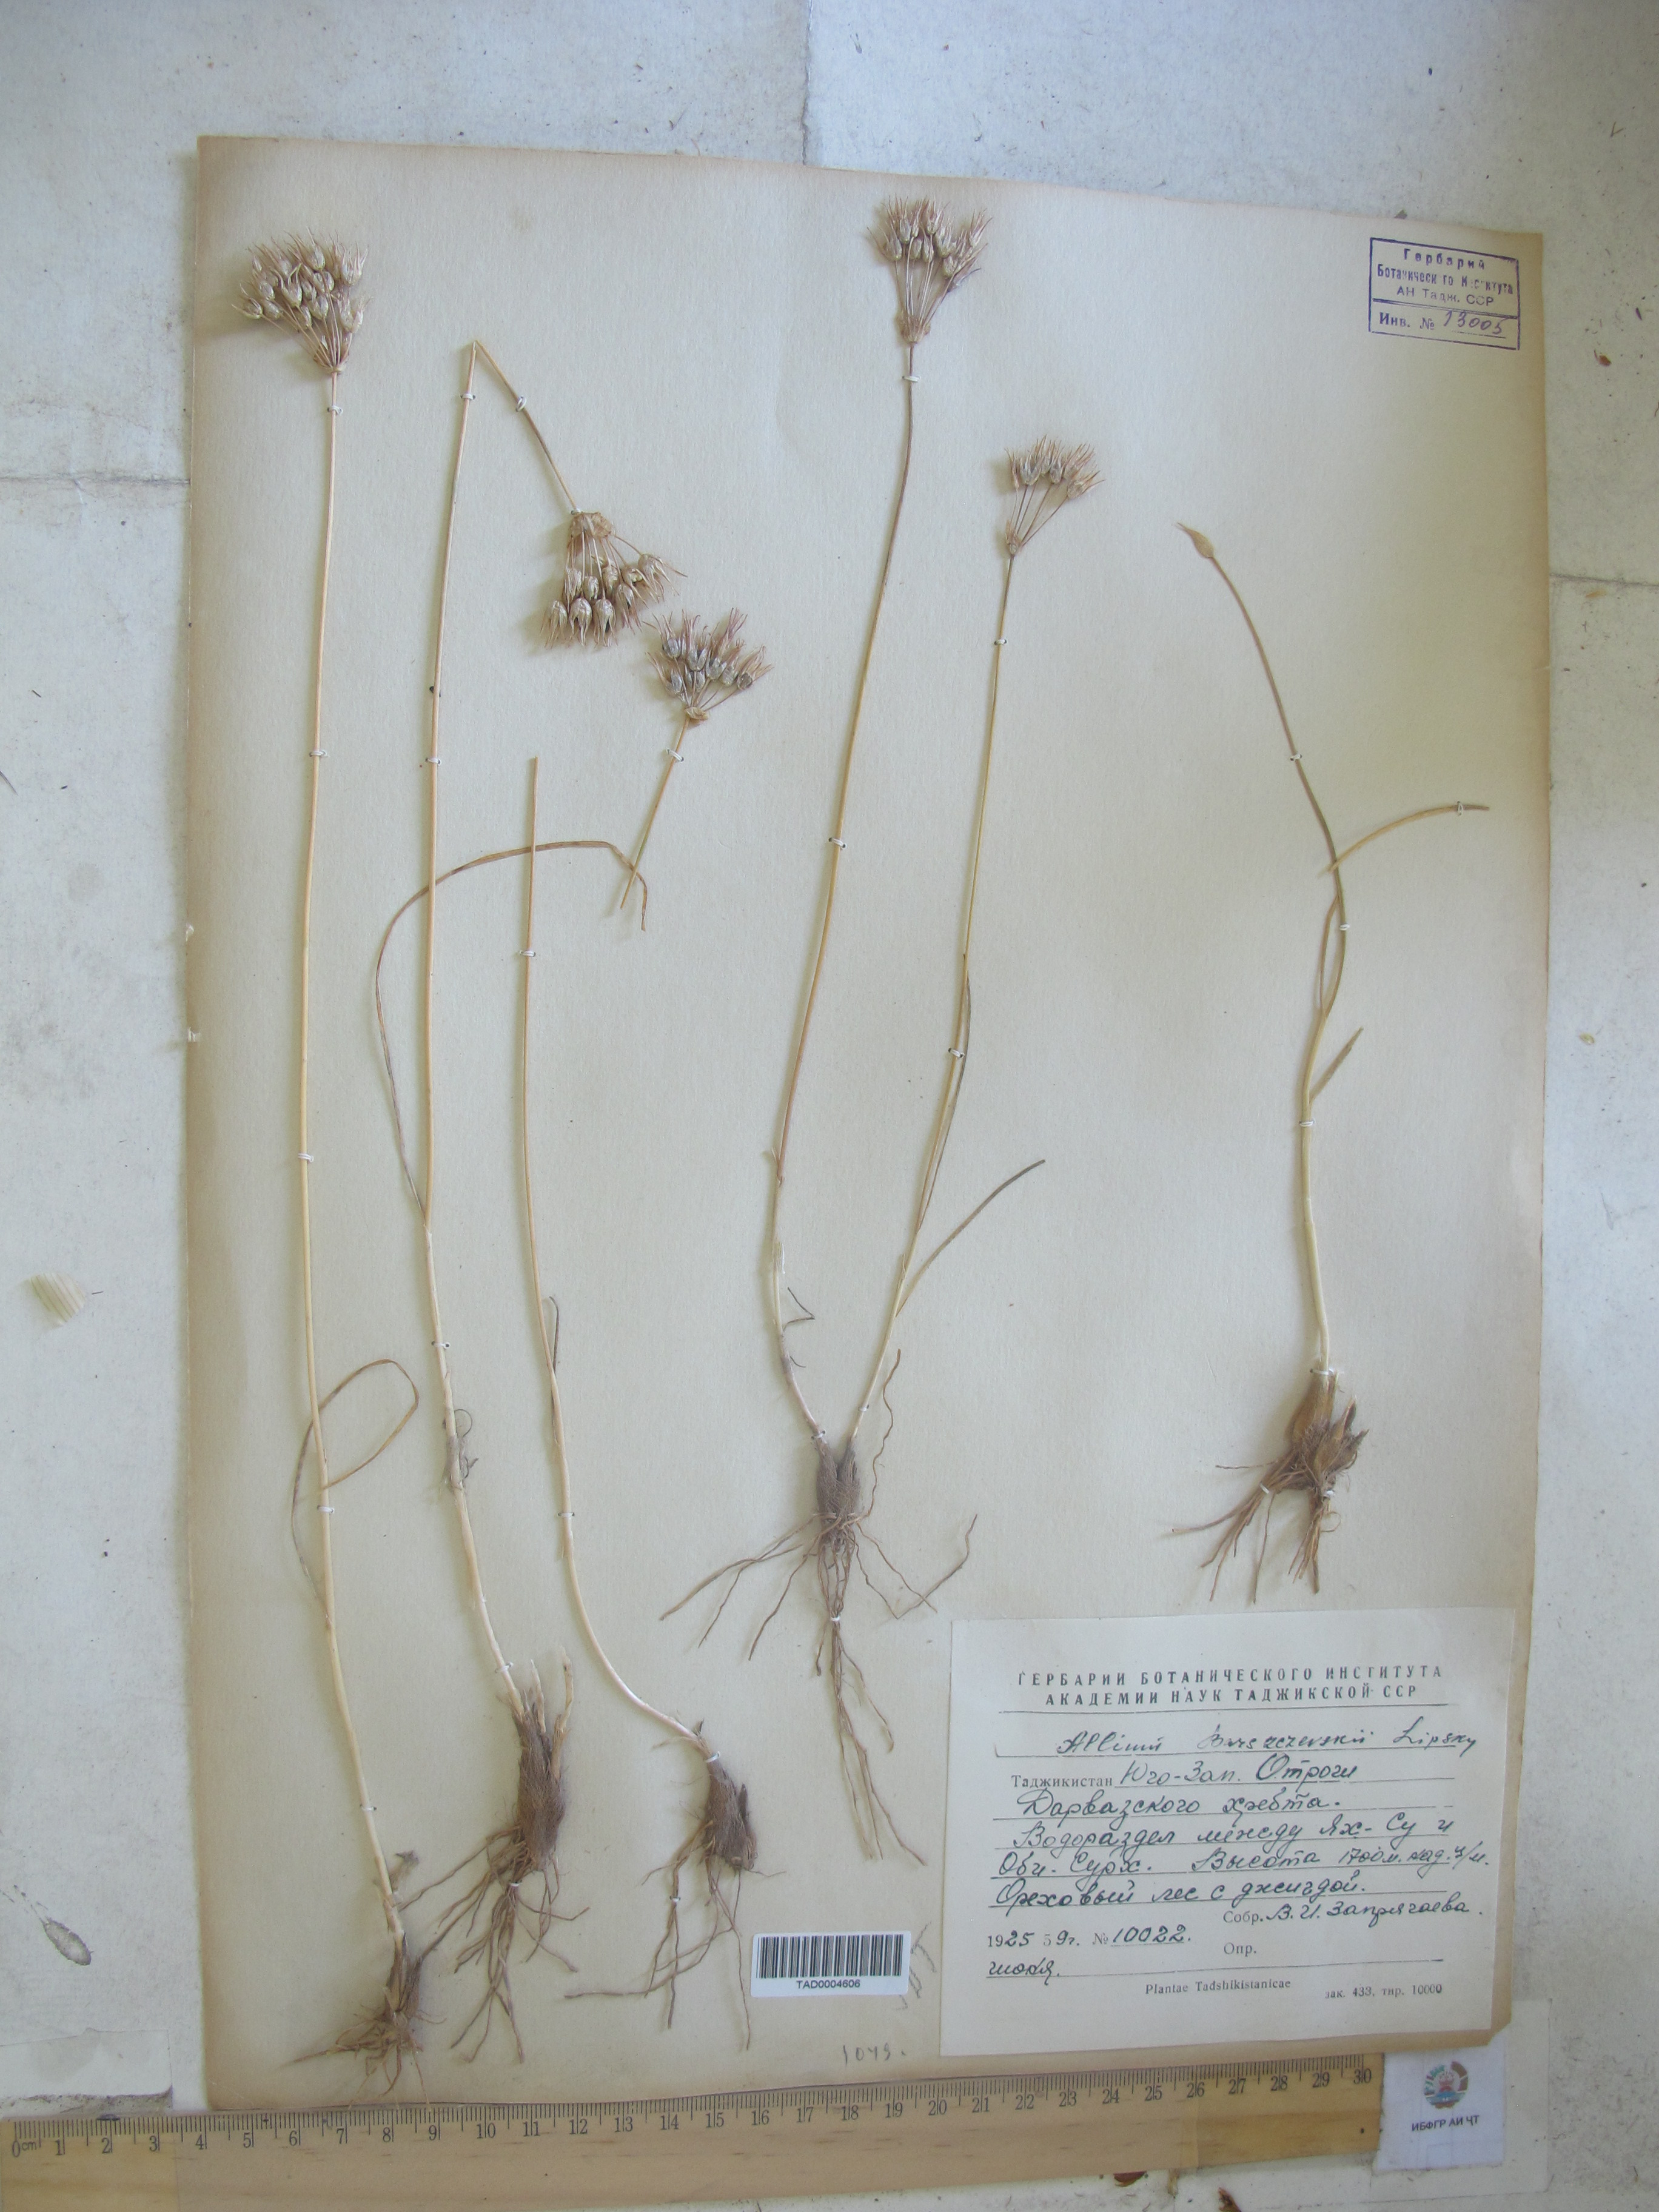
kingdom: Plantae
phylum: Tracheophyta
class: Liliopsida
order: Asparagales
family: Amaryllidaceae
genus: Allium
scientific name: Allium barsczewskii
